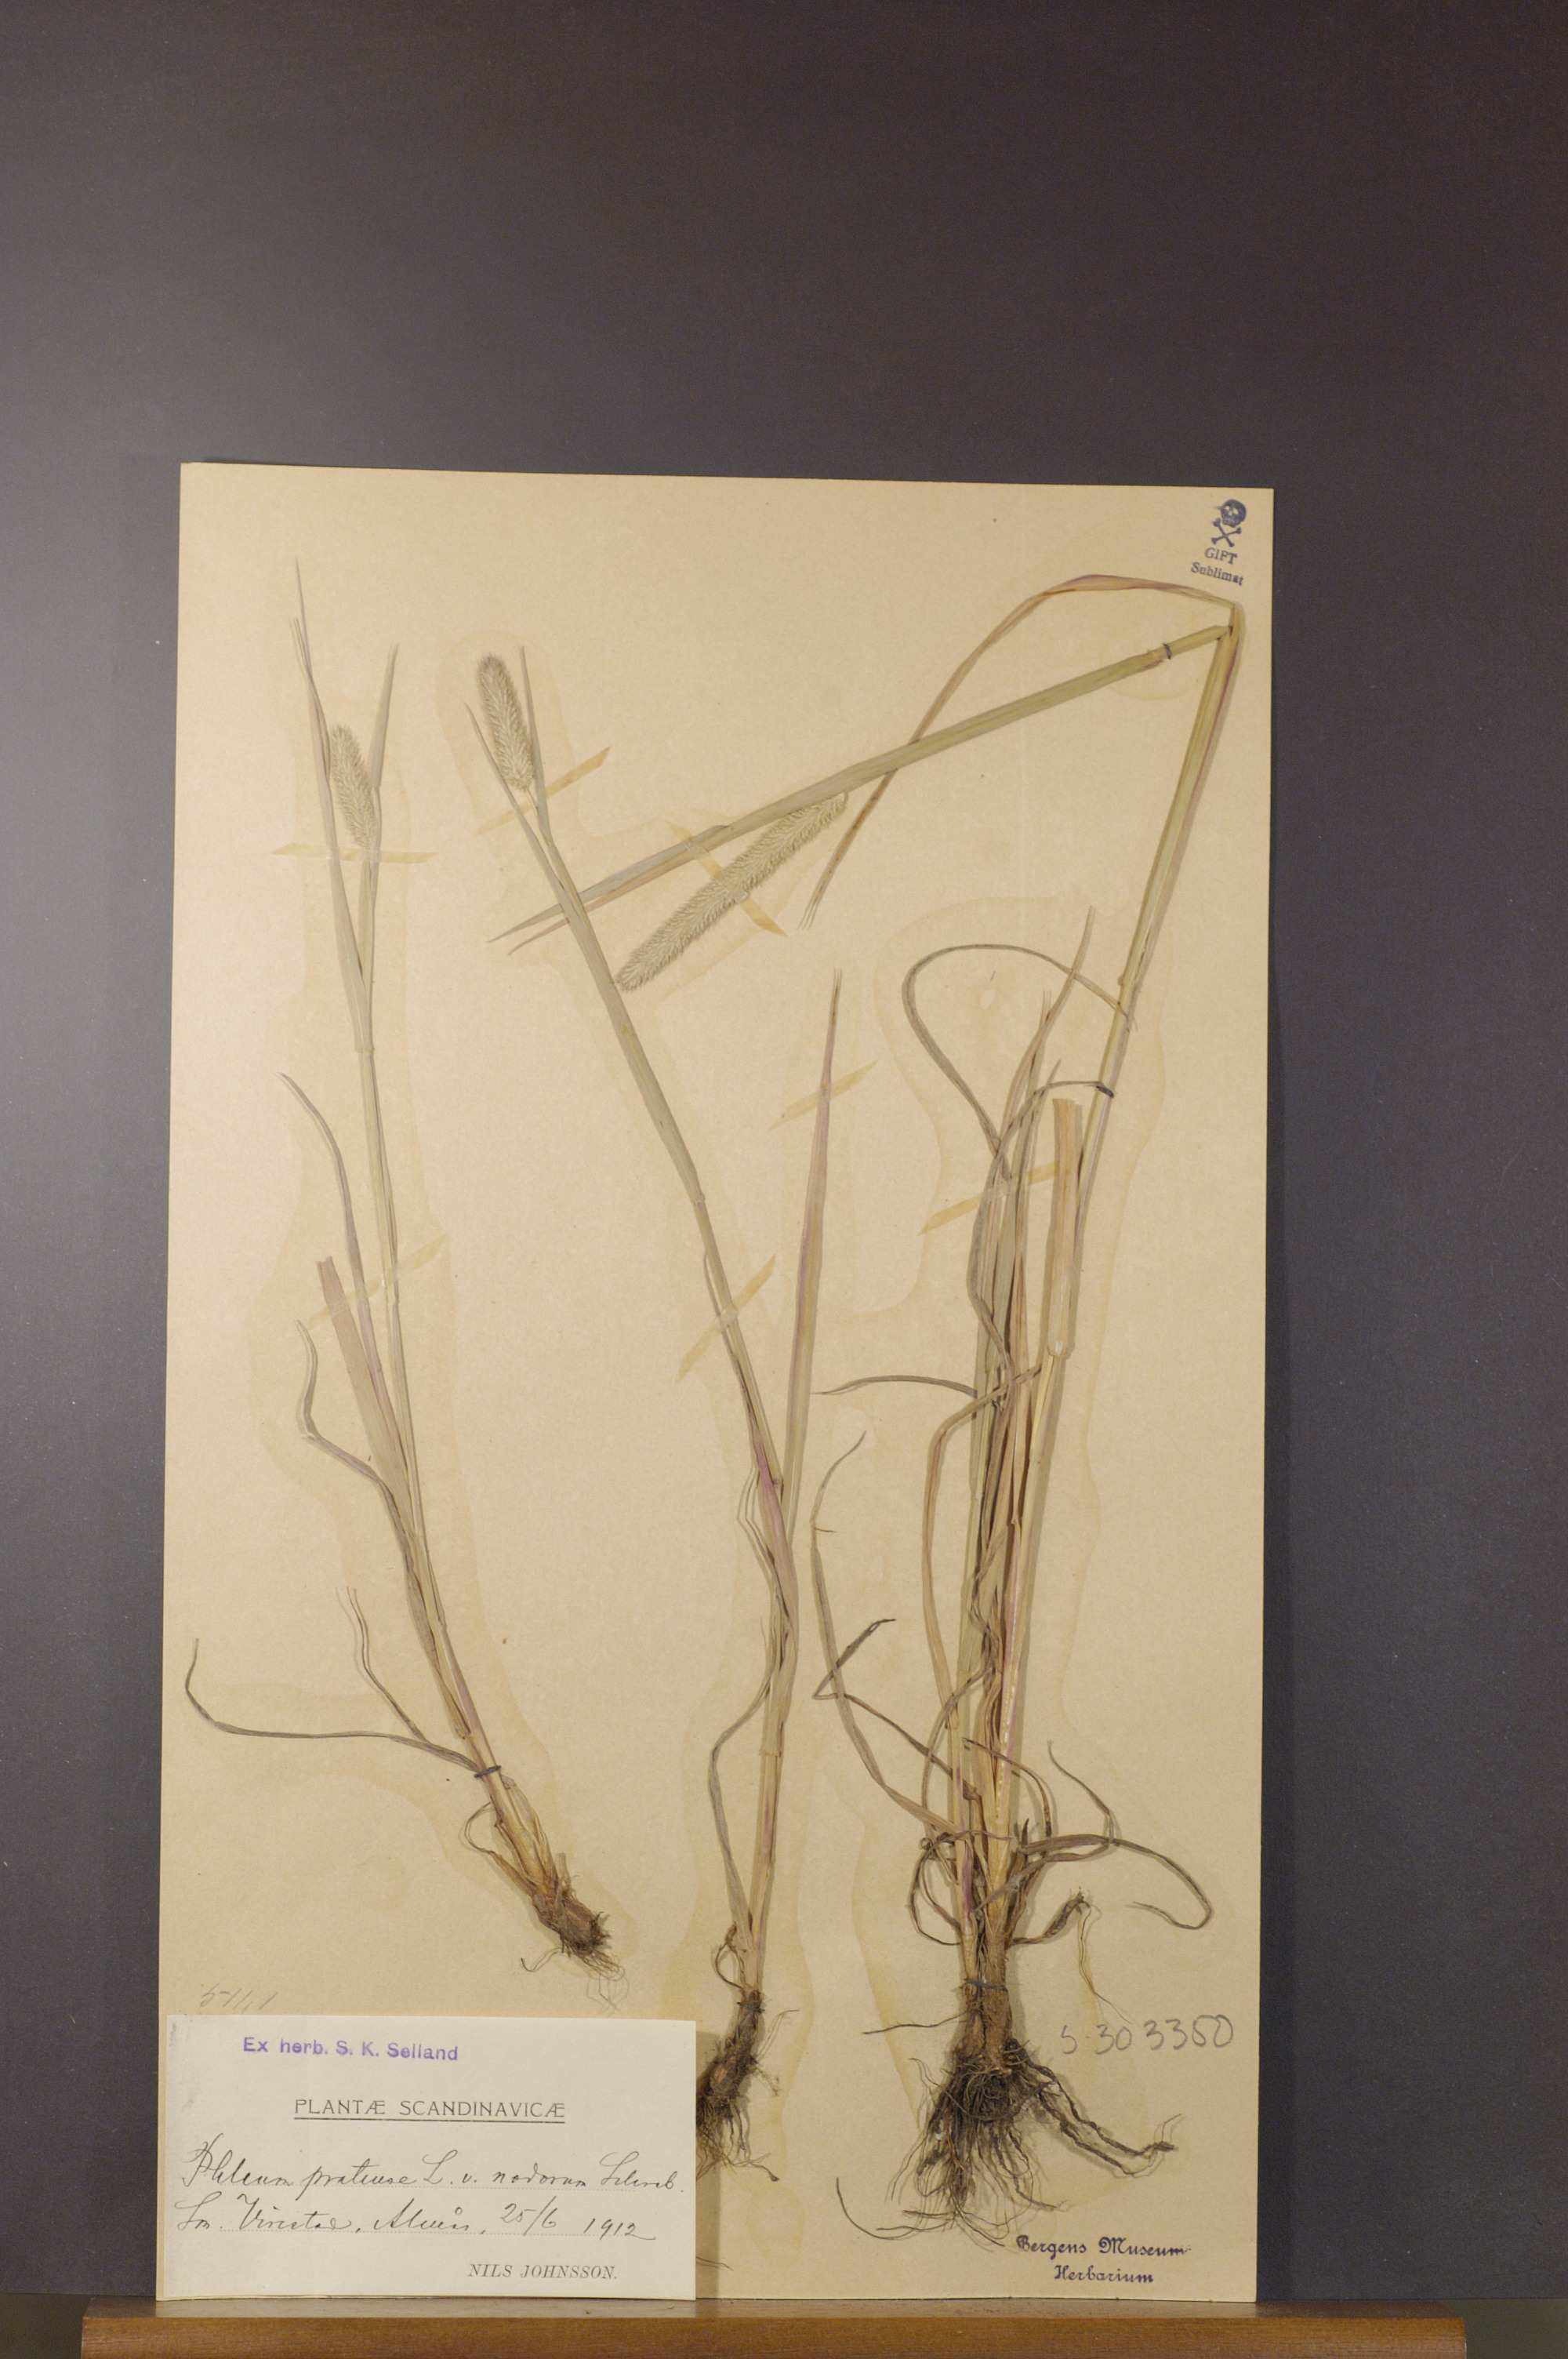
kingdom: Plantae
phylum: Tracheophyta
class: Liliopsida
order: Poales
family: Poaceae
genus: Phleum
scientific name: Phleum pratense
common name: Timothy grass
